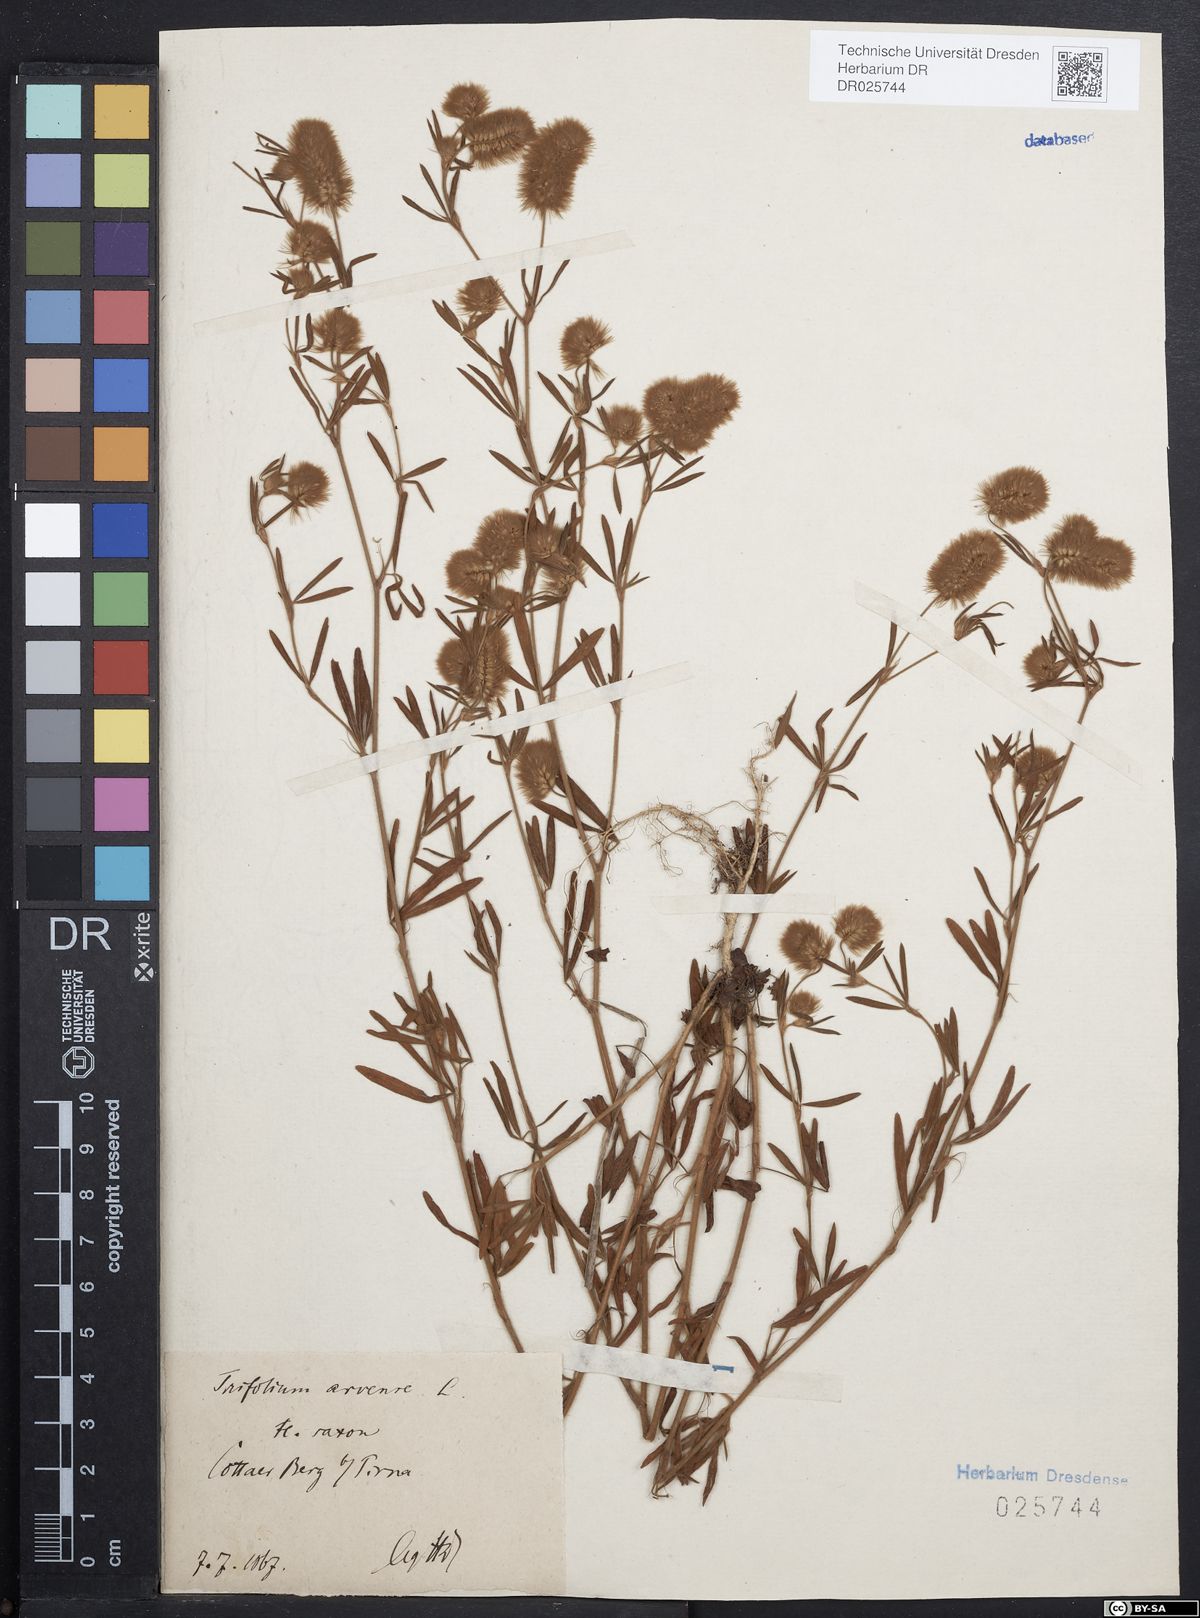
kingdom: Plantae
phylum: Tracheophyta
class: Magnoliopsida
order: Fabales
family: Fabaceae
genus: Trifolium
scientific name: Trifolium arvense
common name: Hare's-foot clover
